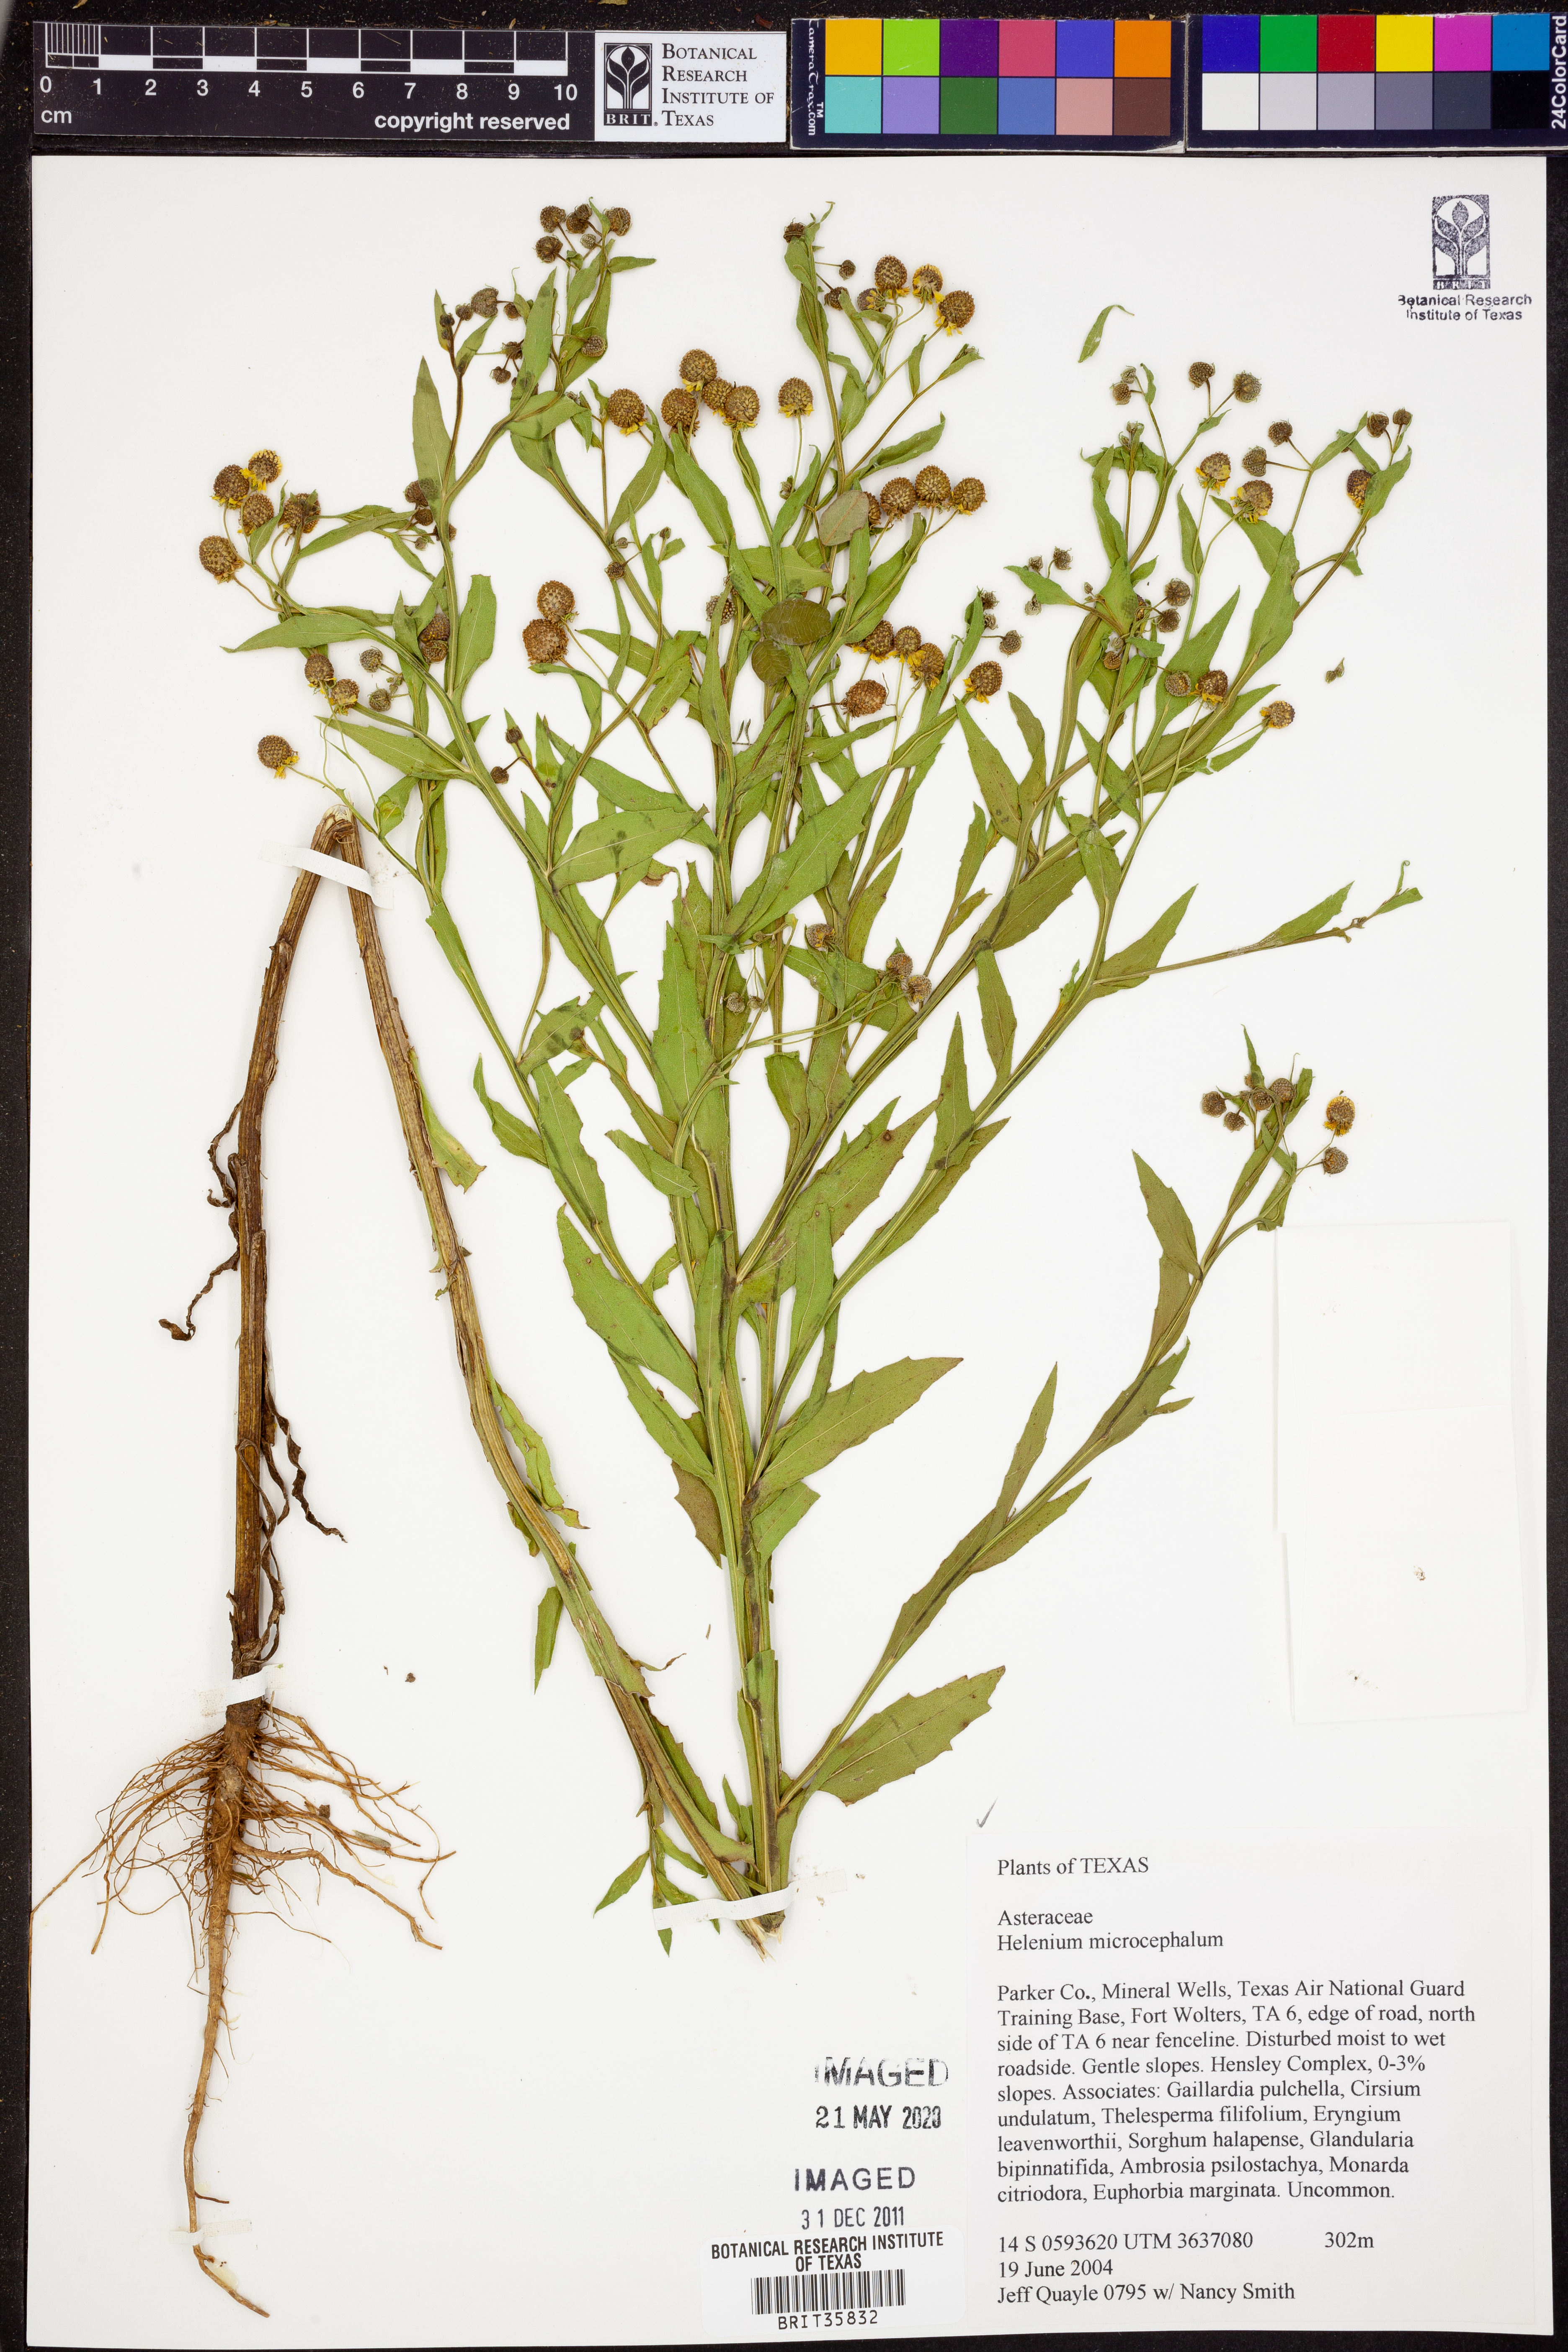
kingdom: Plantae
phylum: Tracheophyta
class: Magnoliopsida
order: Asterales
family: Asteraceae
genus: Helenium
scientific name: Helenium microcephalum
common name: Smallhead sneezeweed
